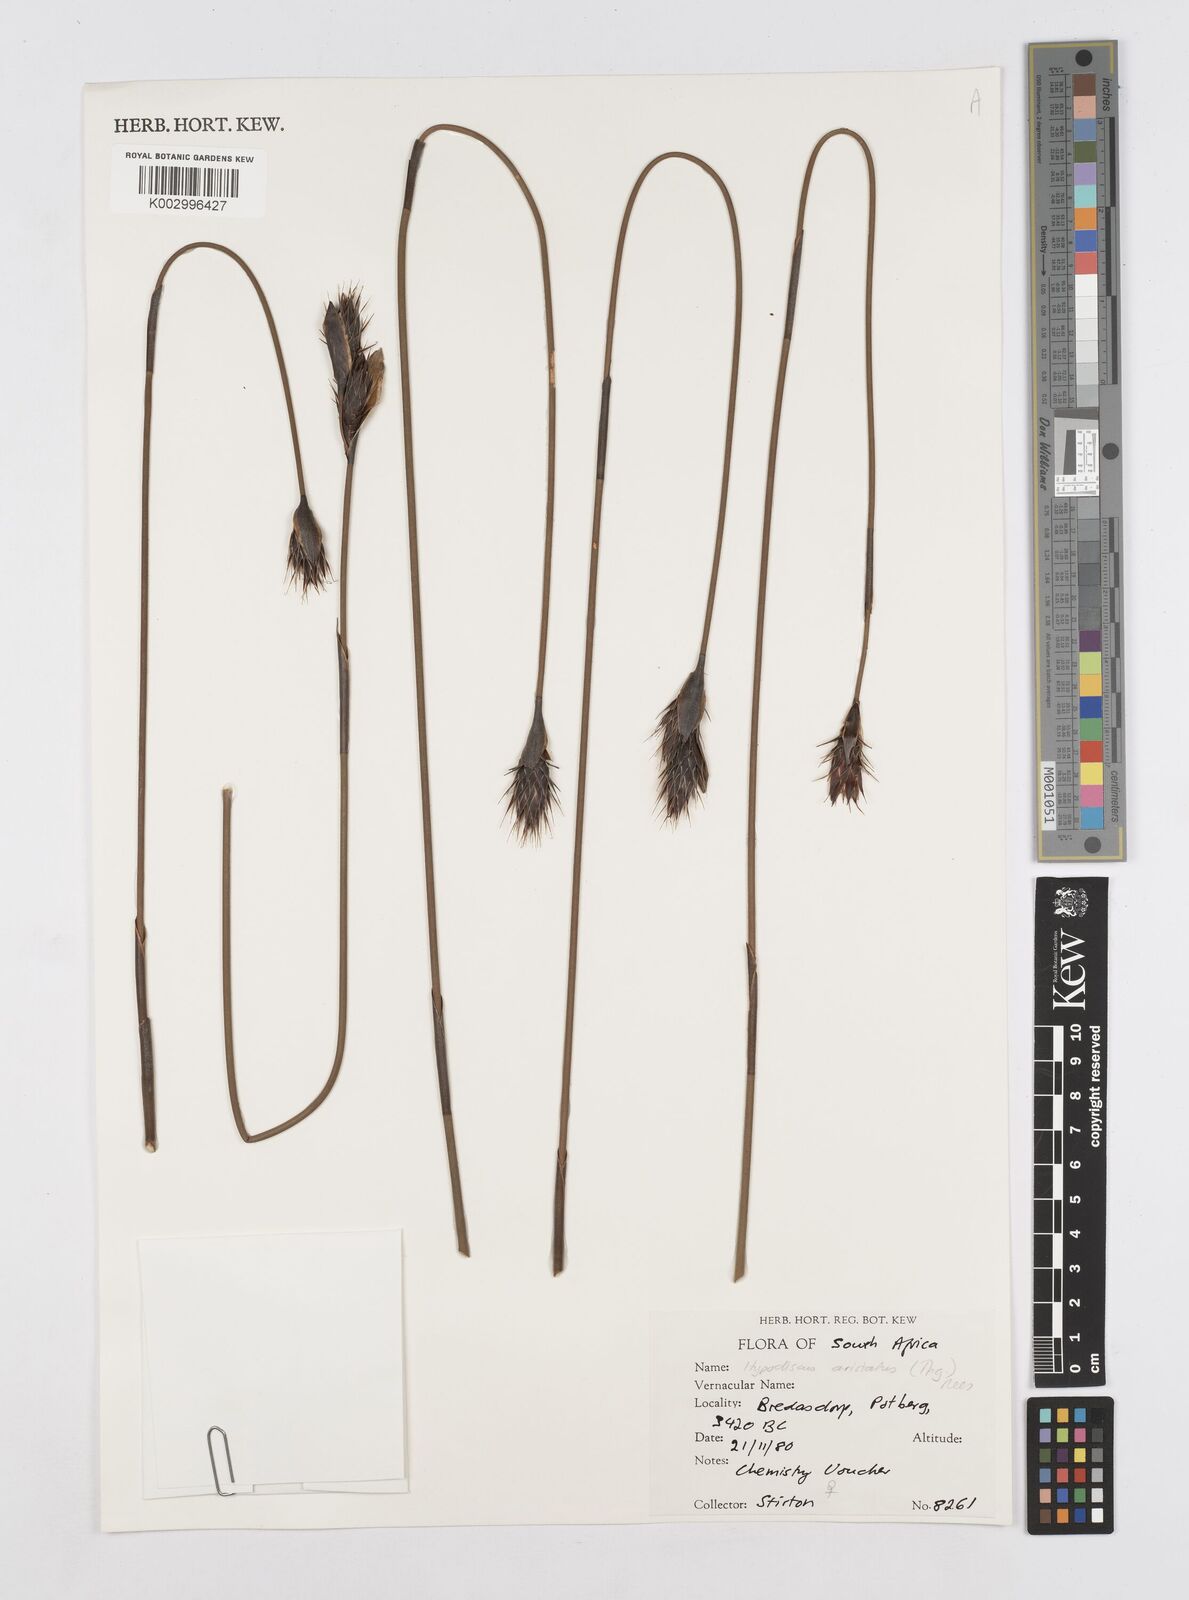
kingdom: Plantae
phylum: Tracheophyta
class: Liliopsida
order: Poales
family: Restionaceae
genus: Hypodiscus
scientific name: Hypodiscus aristatus
